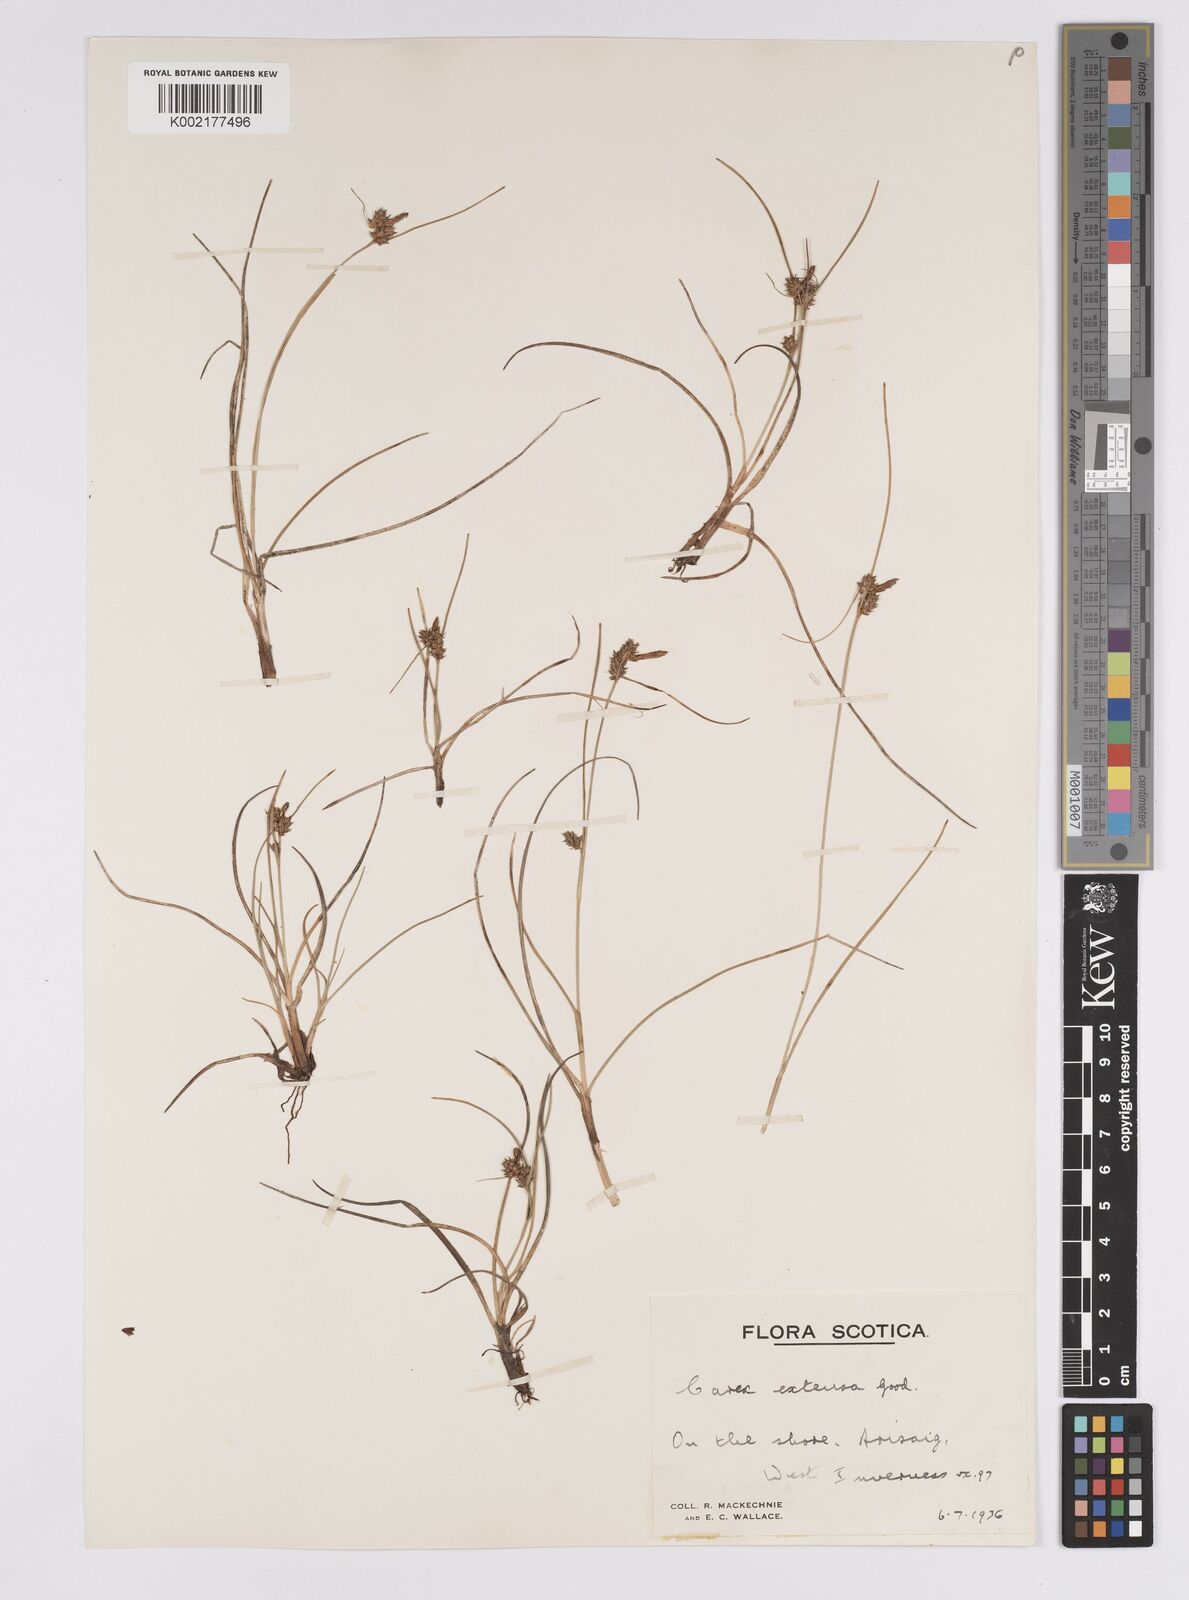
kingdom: Plantae
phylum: Tracheophyta
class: Liliopsida
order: Poales
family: Cyperaceae
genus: Carex
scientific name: Carex extensa
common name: Long-bracted sedge
